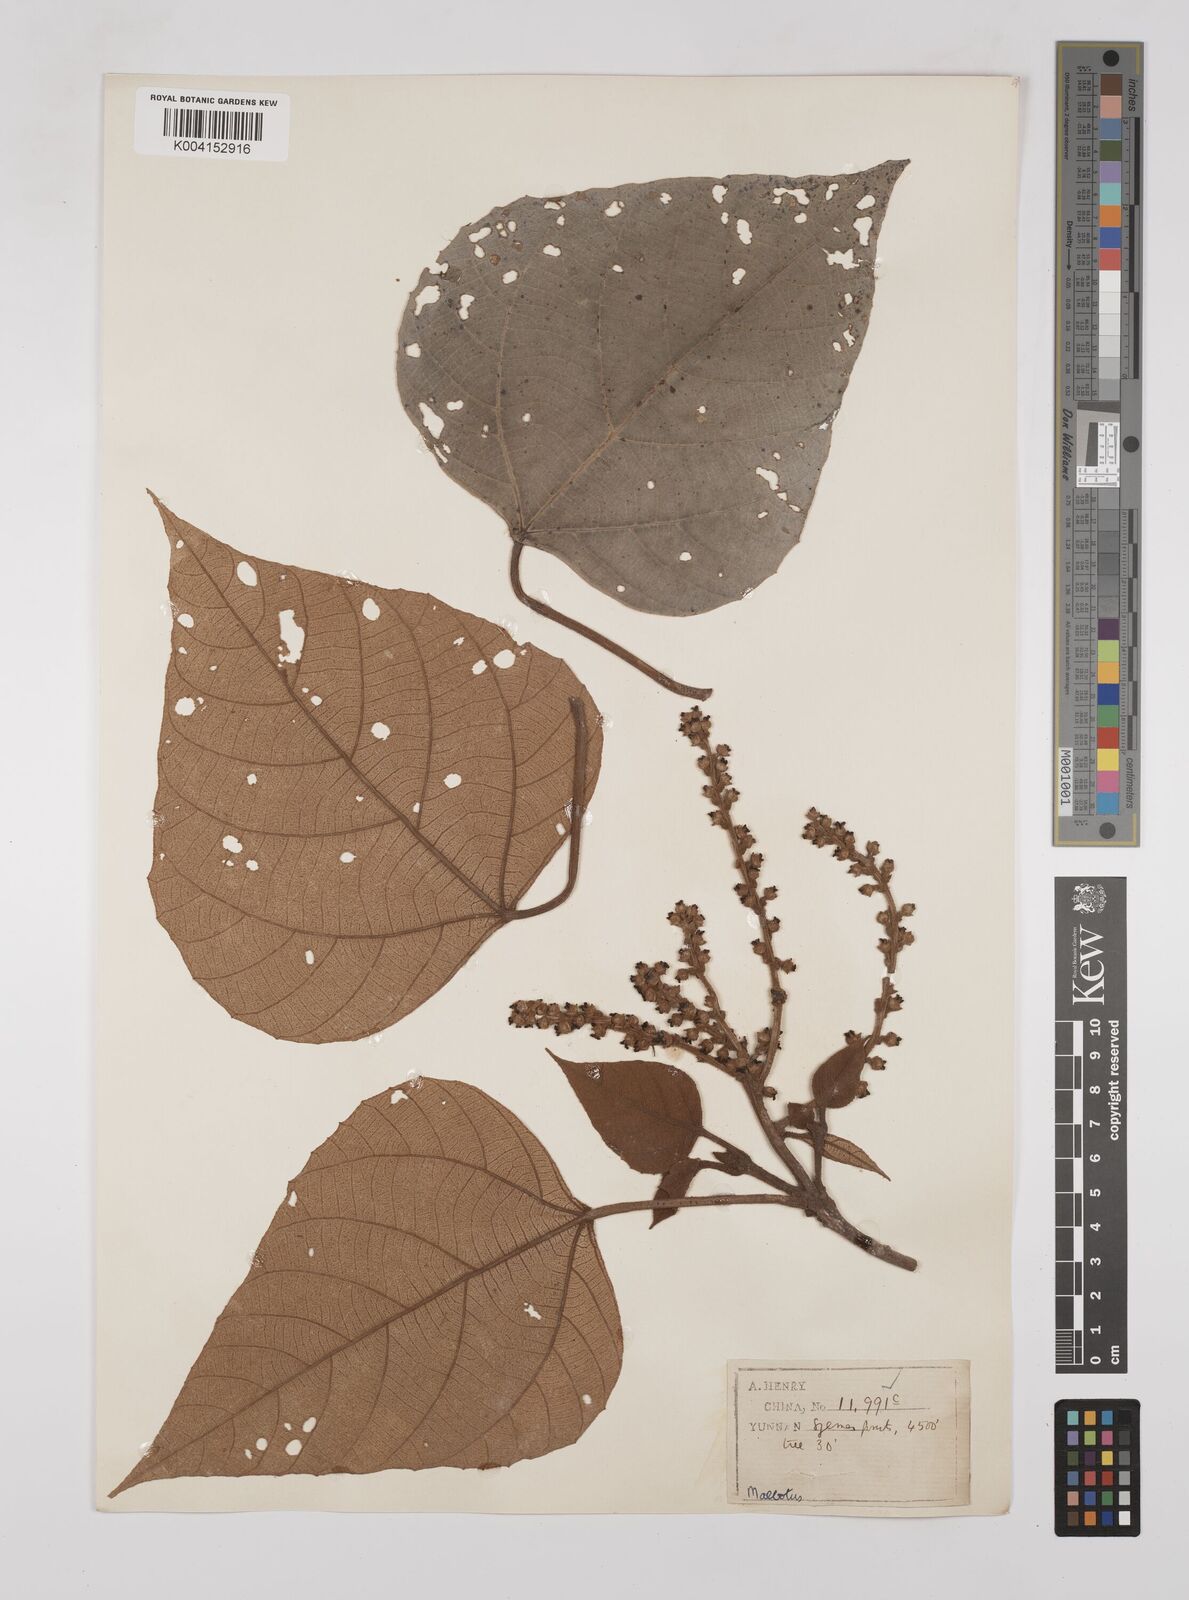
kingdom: Plantae
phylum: Tracheophyta
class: Magnoliopsida
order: Malpighiales
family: Euphorbiaceae
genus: Mallotus
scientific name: Mallotus
